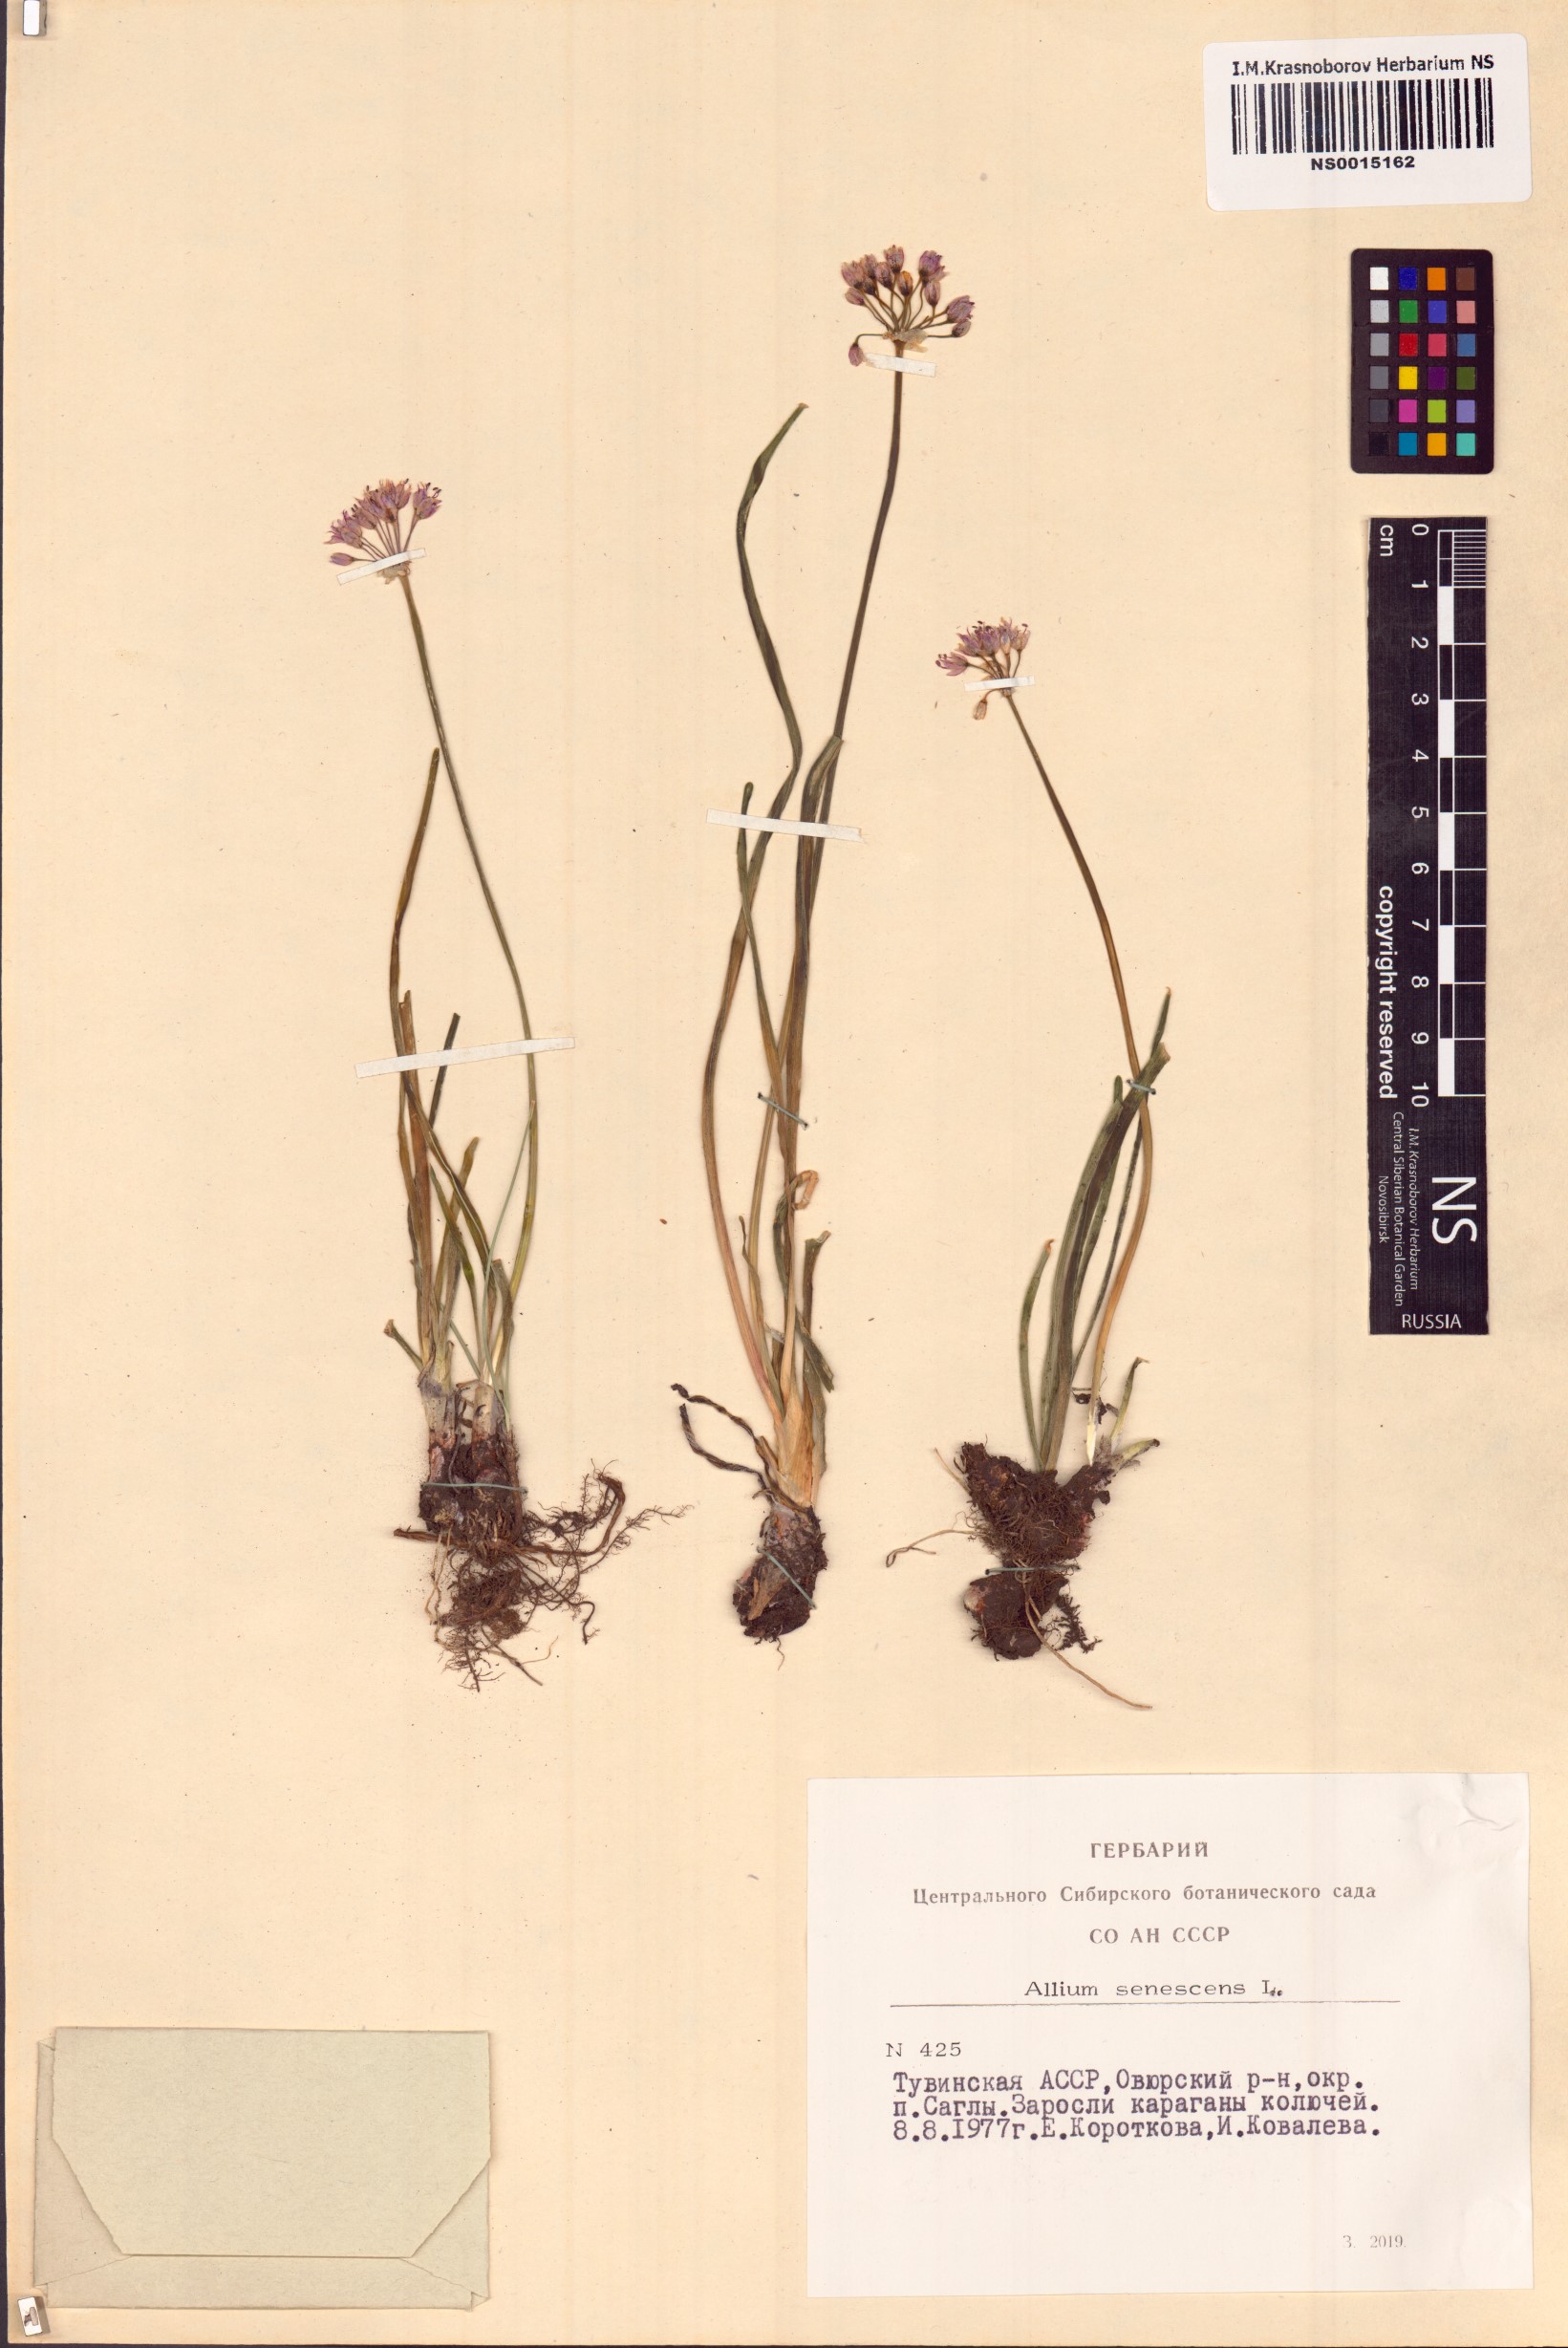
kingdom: Plantae
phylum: Tracheophyta
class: Liliopsida
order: Asparagales
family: Amaryllidaceae
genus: Allium
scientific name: Allium senescens
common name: German garlic
